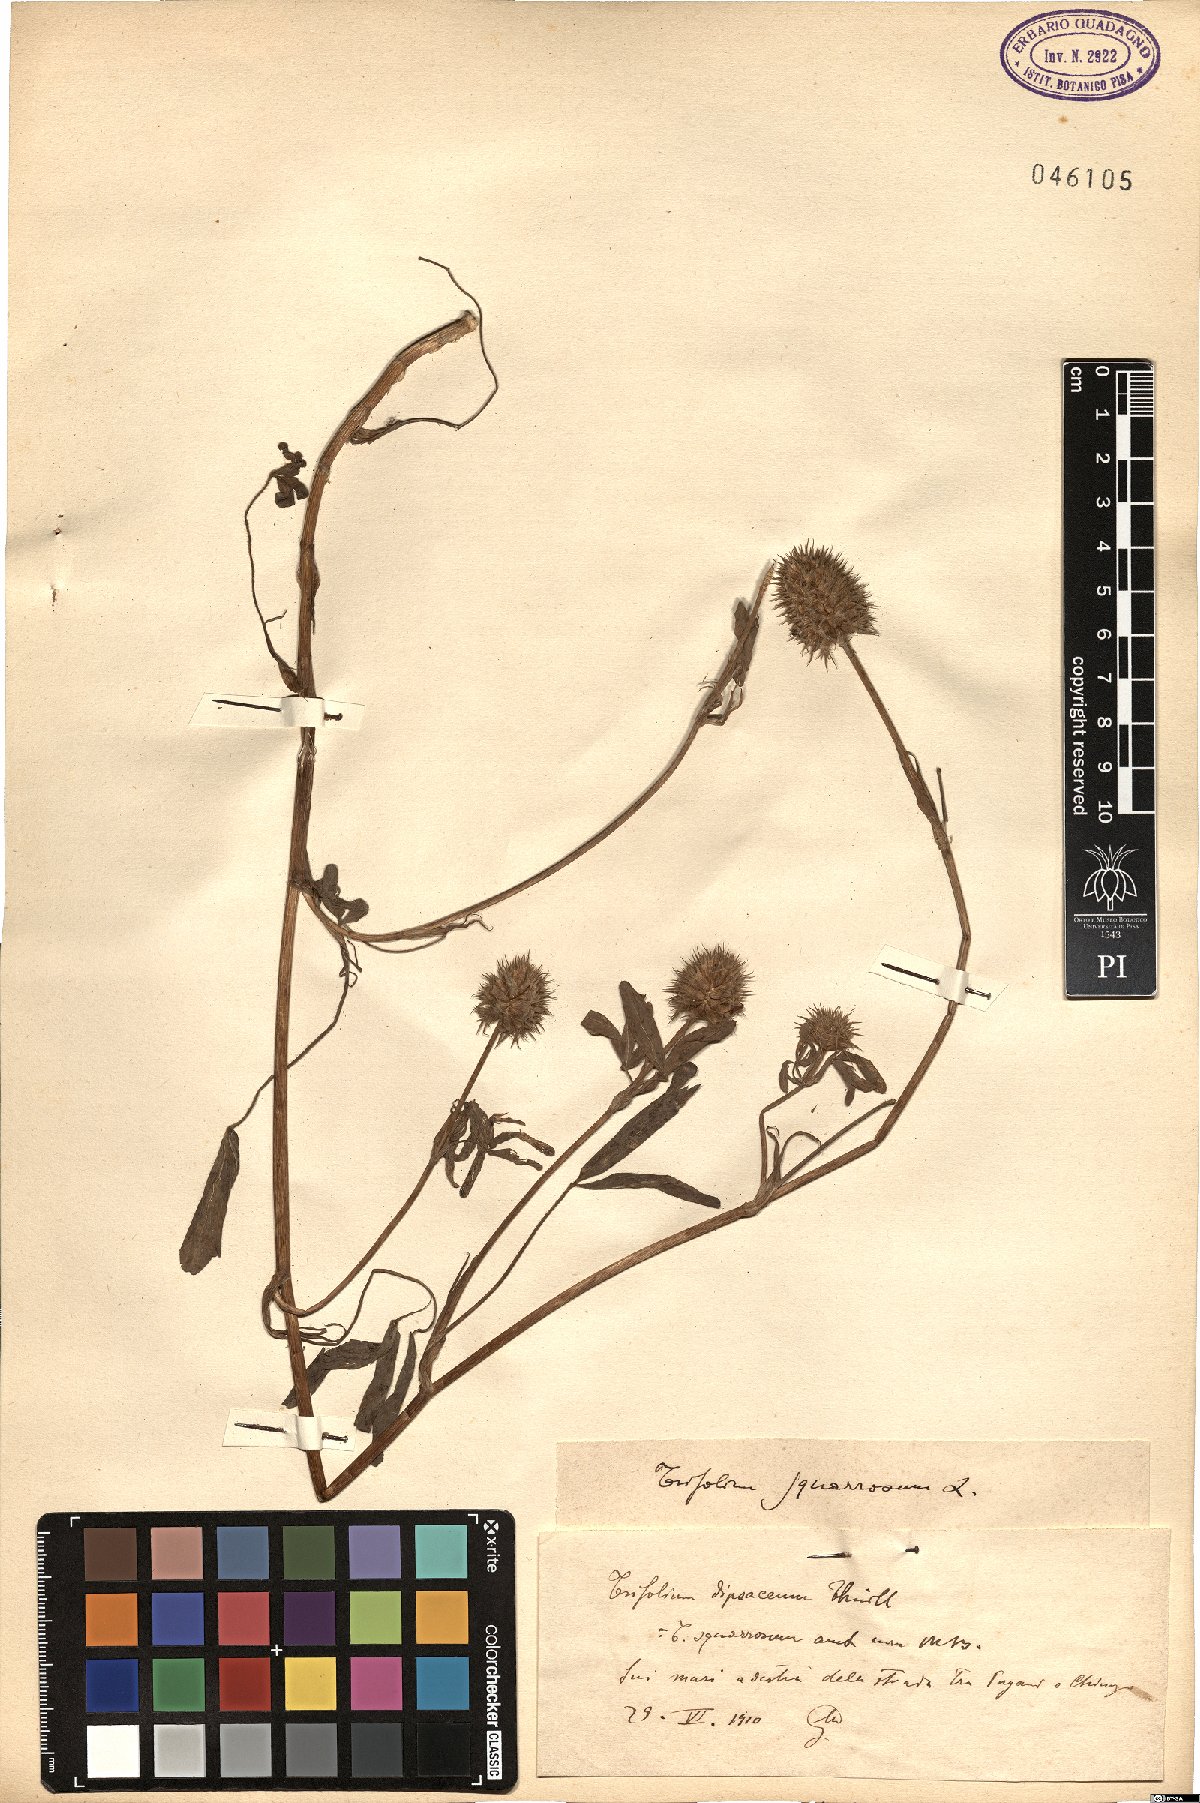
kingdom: Plantae
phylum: Tracheophyta
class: Magnoliopsida
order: Fabales
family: Fabaceae
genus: Trifolium
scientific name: Trifolium squarrosum
